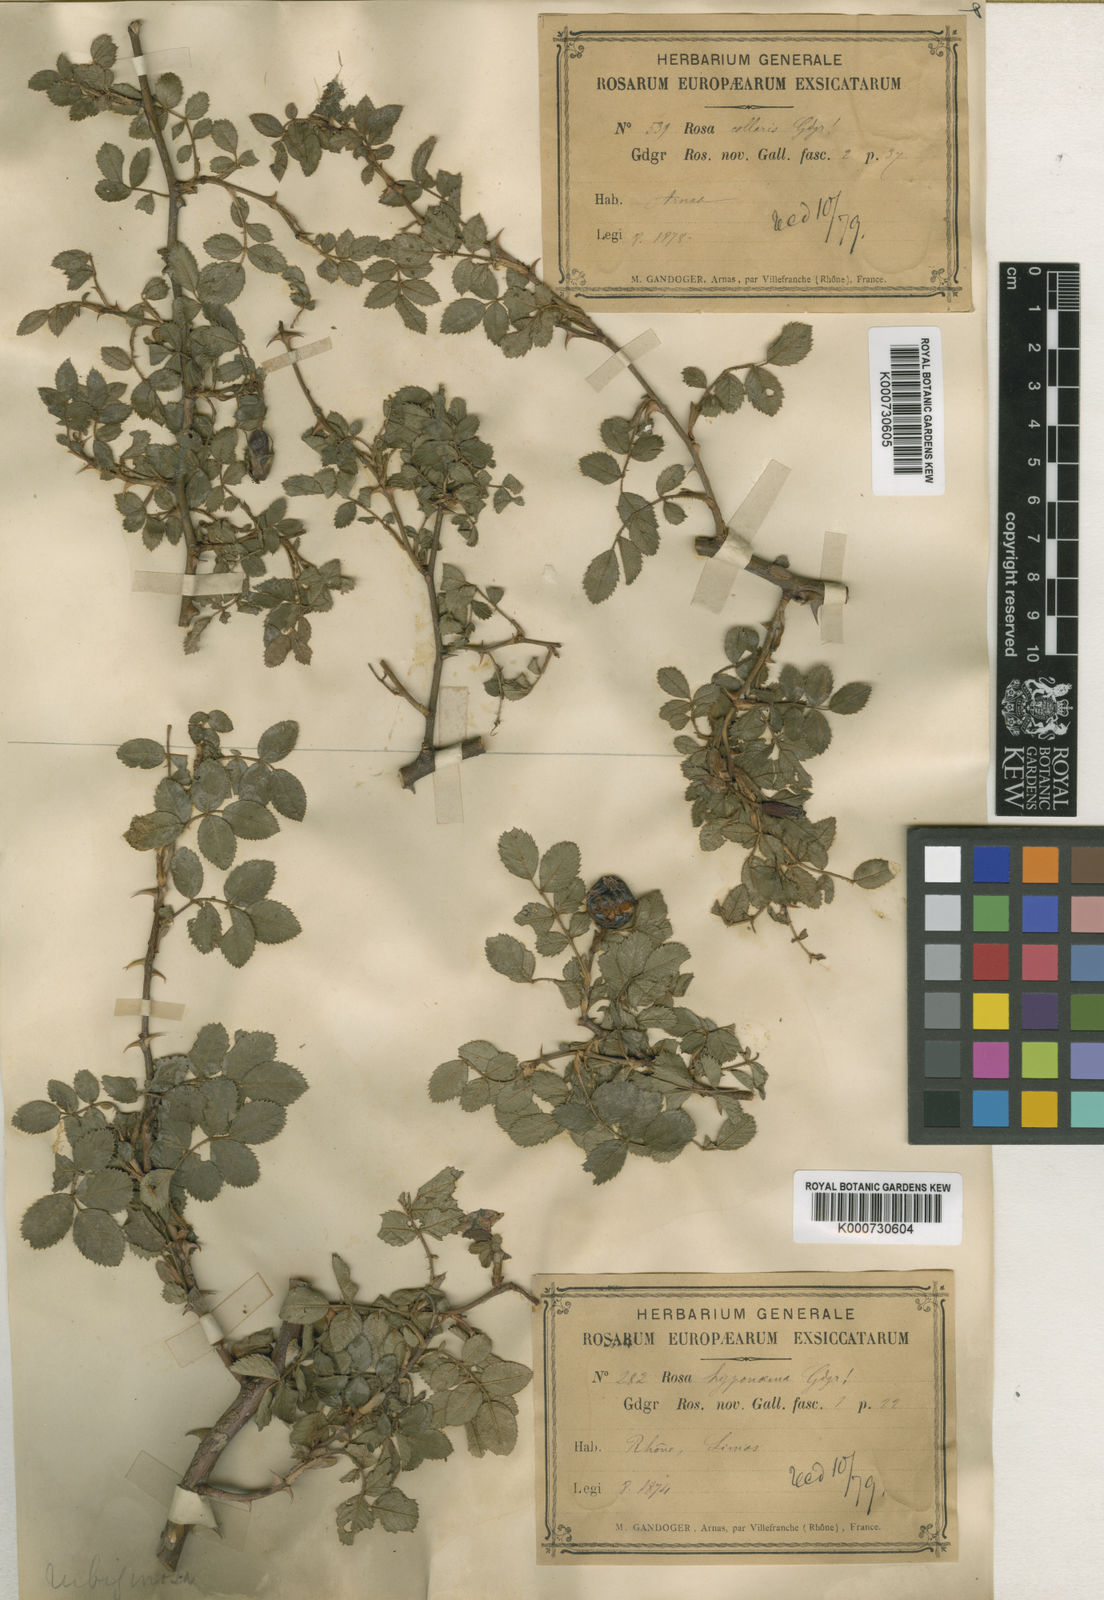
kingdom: Plantae
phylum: Tracheophyta
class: Magnoliopsida
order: Rosales
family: Rosaceae
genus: Rosa
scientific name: Rosa rubiginosa
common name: Sweet-briar
